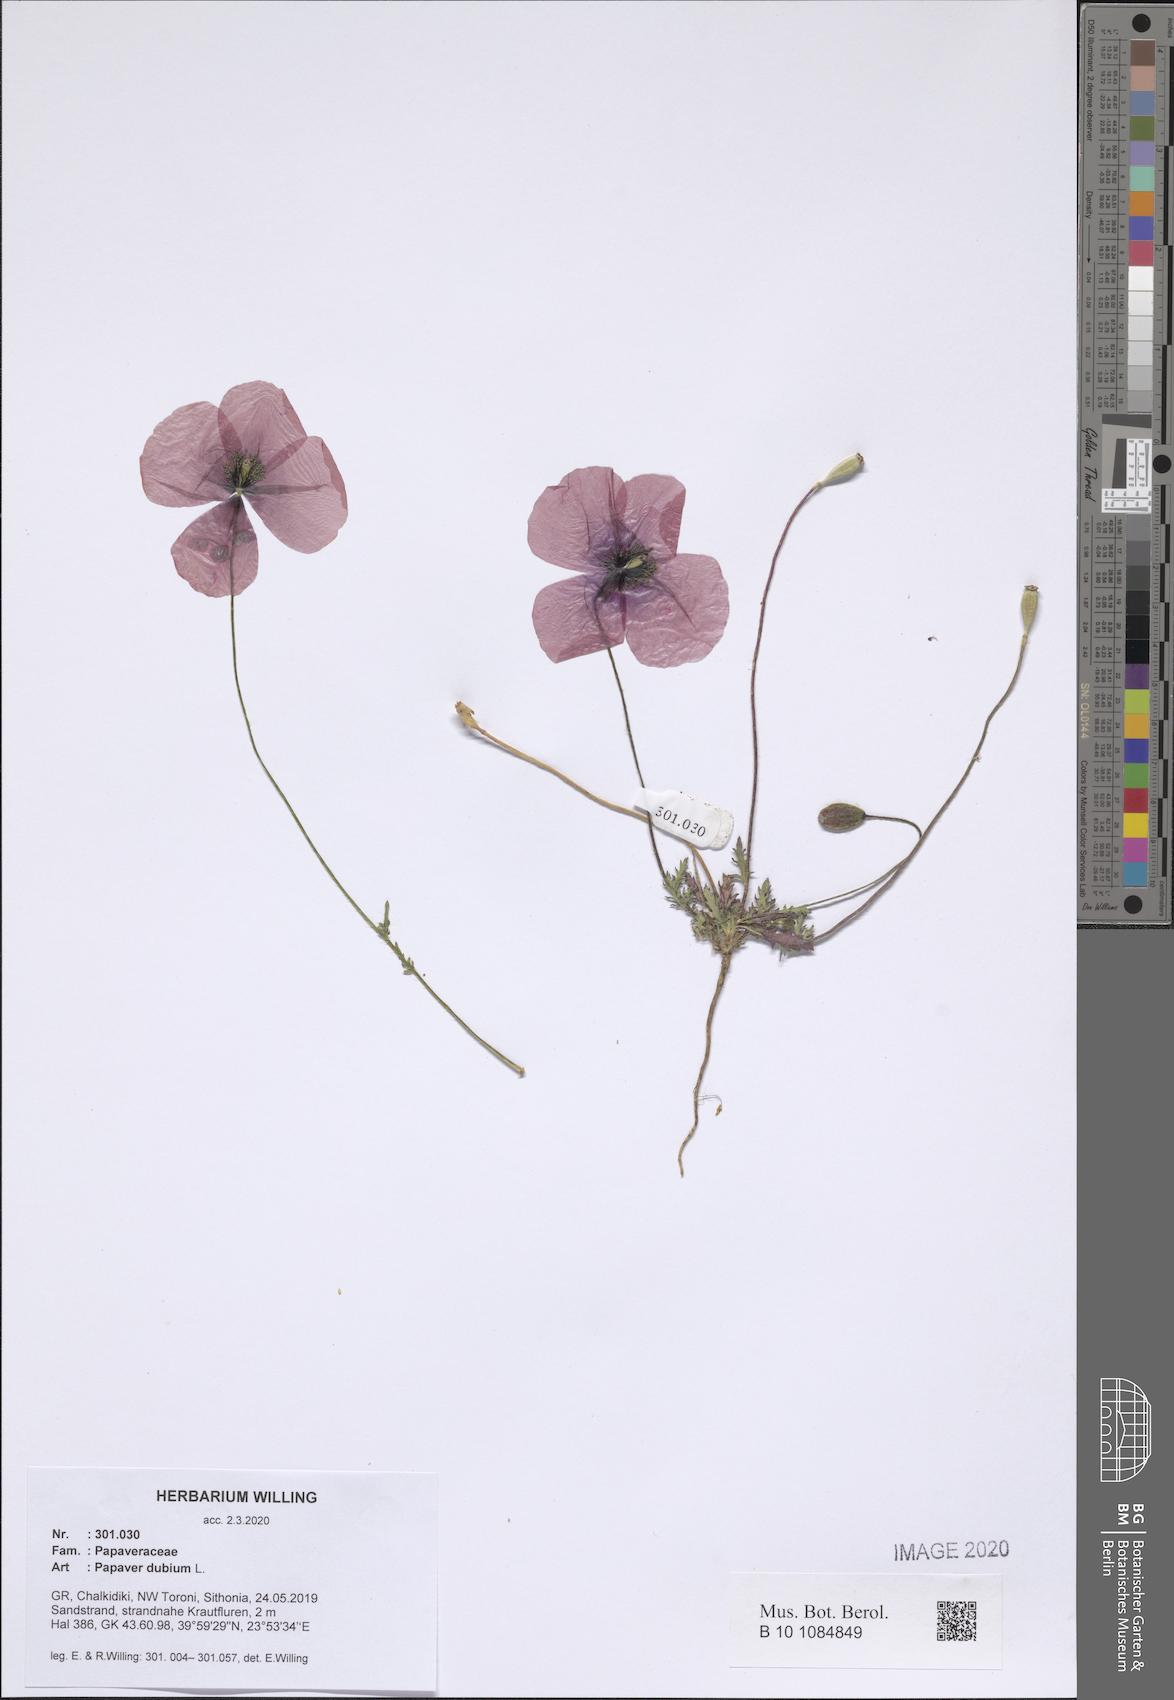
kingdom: Plantae
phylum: Tracheophyta
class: Magnoliopsida
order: Ranunculales
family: Papaveraceae
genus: Papaver
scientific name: Papaver dubium
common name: Long-headed poppy
